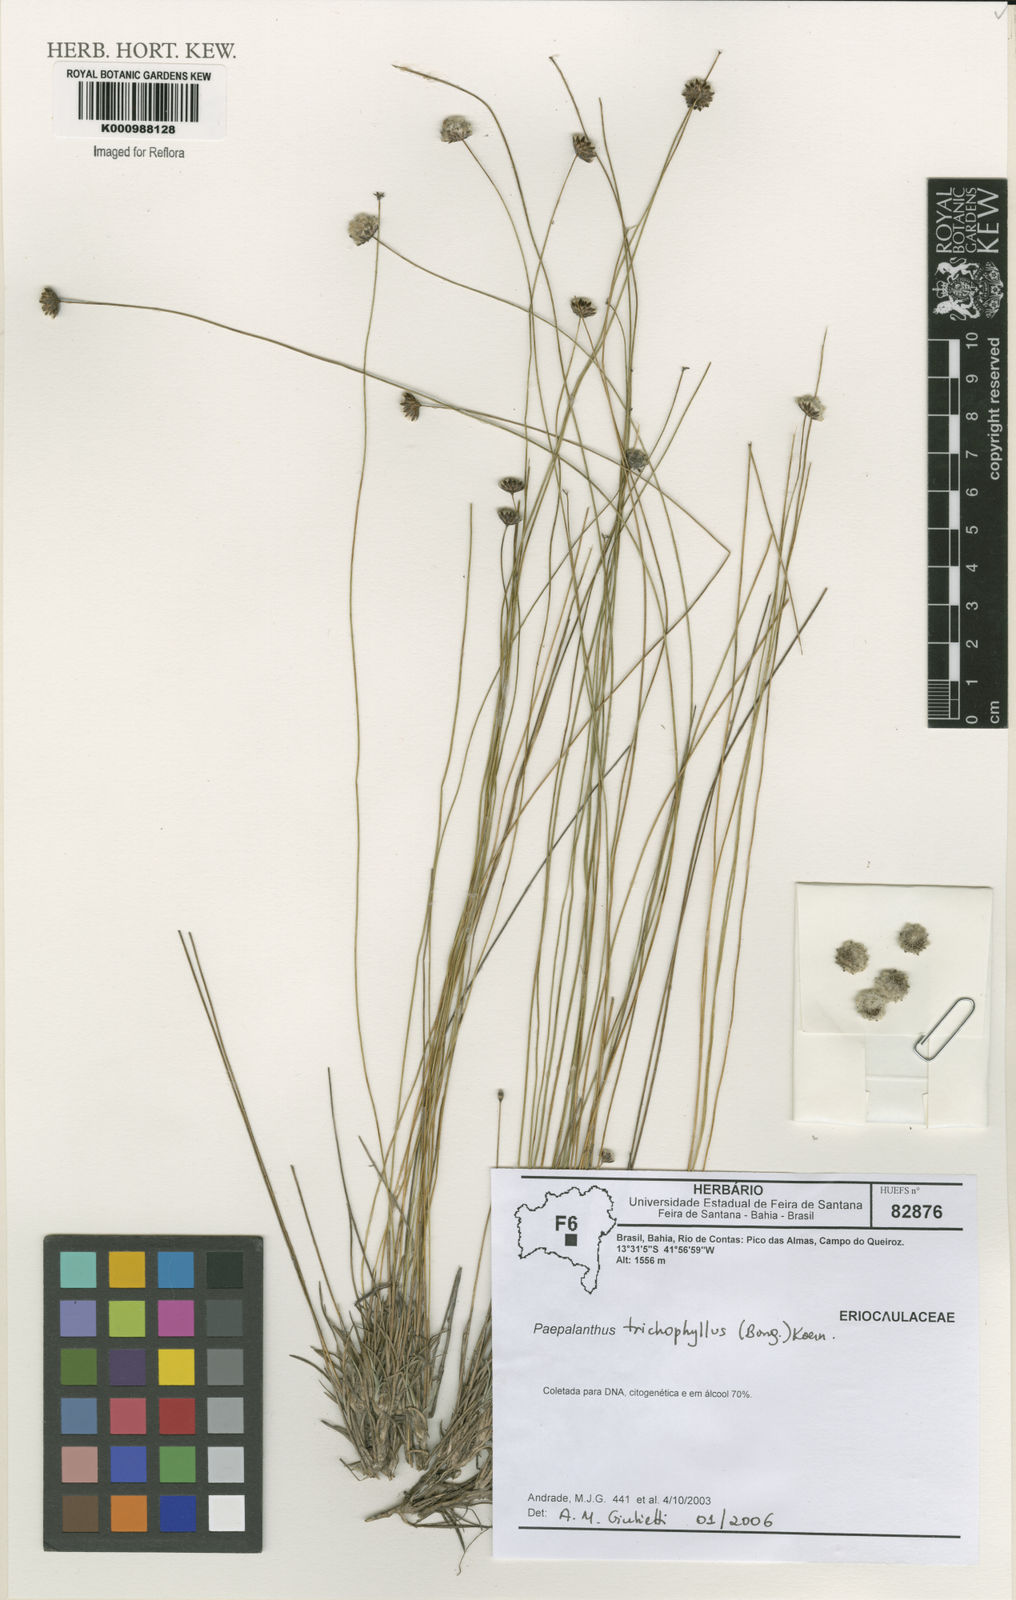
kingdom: Plantae
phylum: Tracheophyta
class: Liliopsida
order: Poales
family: Eriocaulaceae
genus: Paepalanthus
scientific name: Paepalanthus
